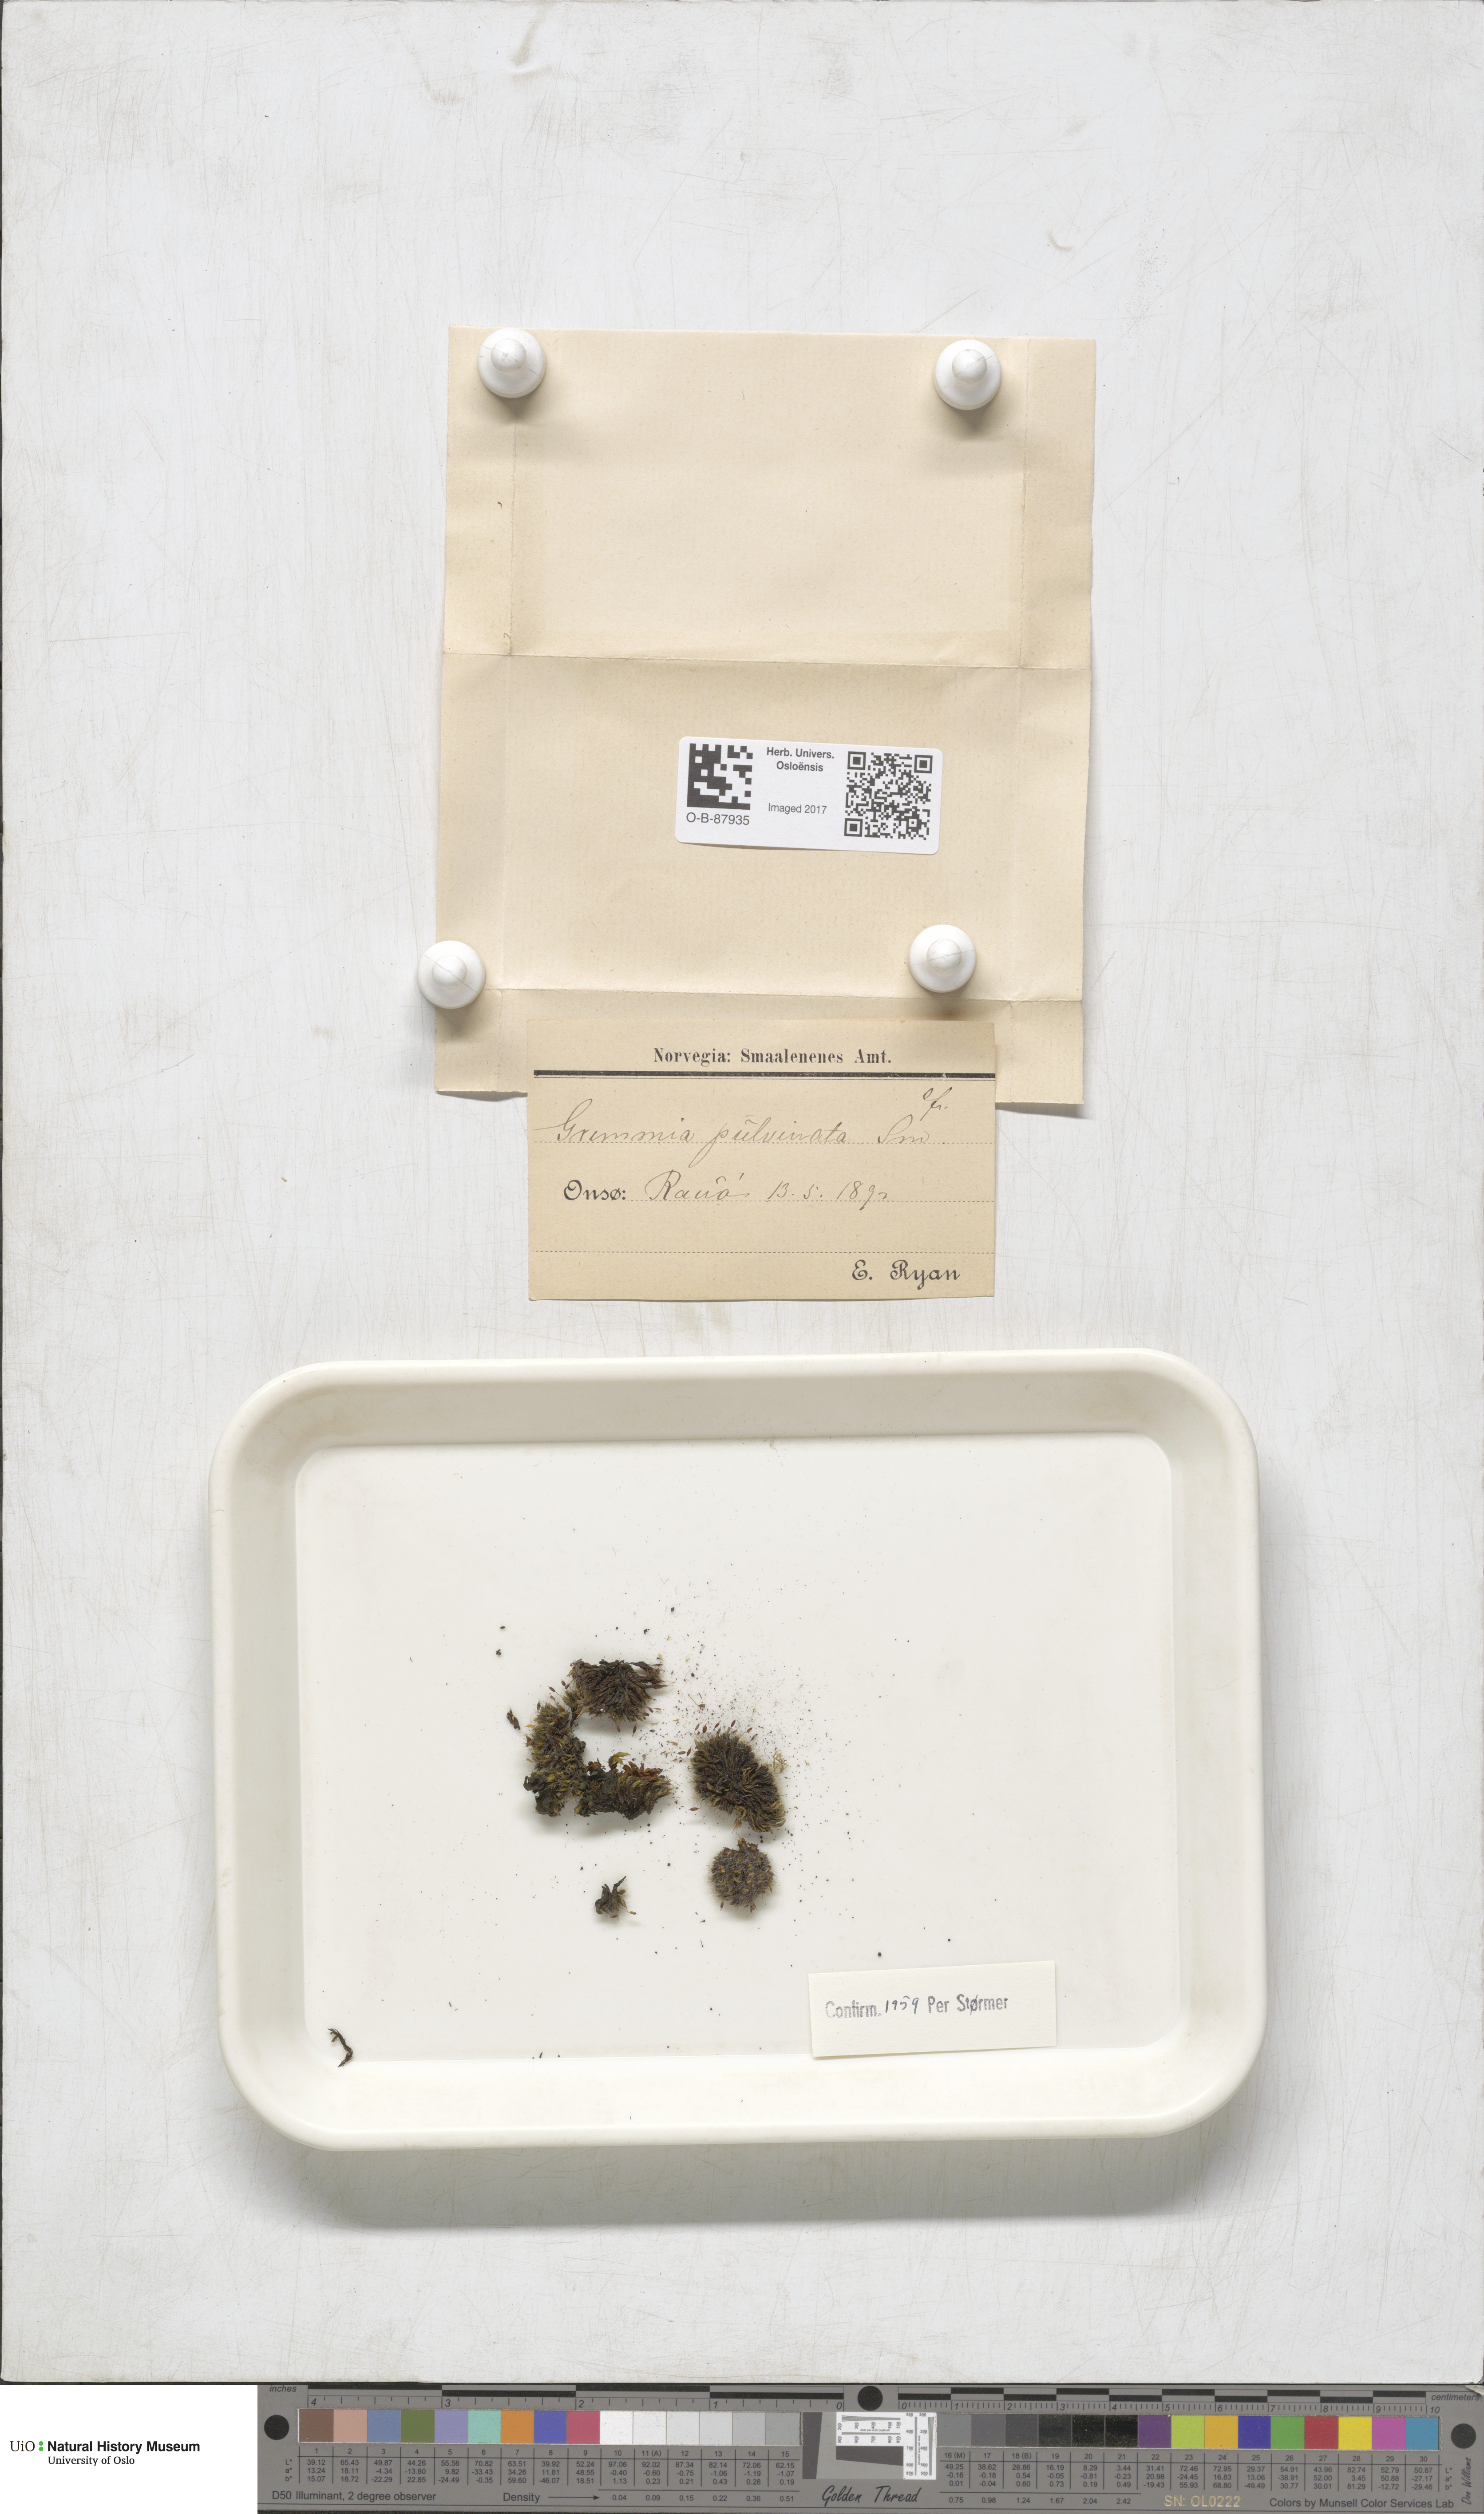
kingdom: Plantae
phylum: Bryophyta
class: Bryopsida
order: Grimmiales
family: Grimmiaceae
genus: Grimmia
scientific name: Grimmia pulvinata
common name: Grey-cushioned grimmia
